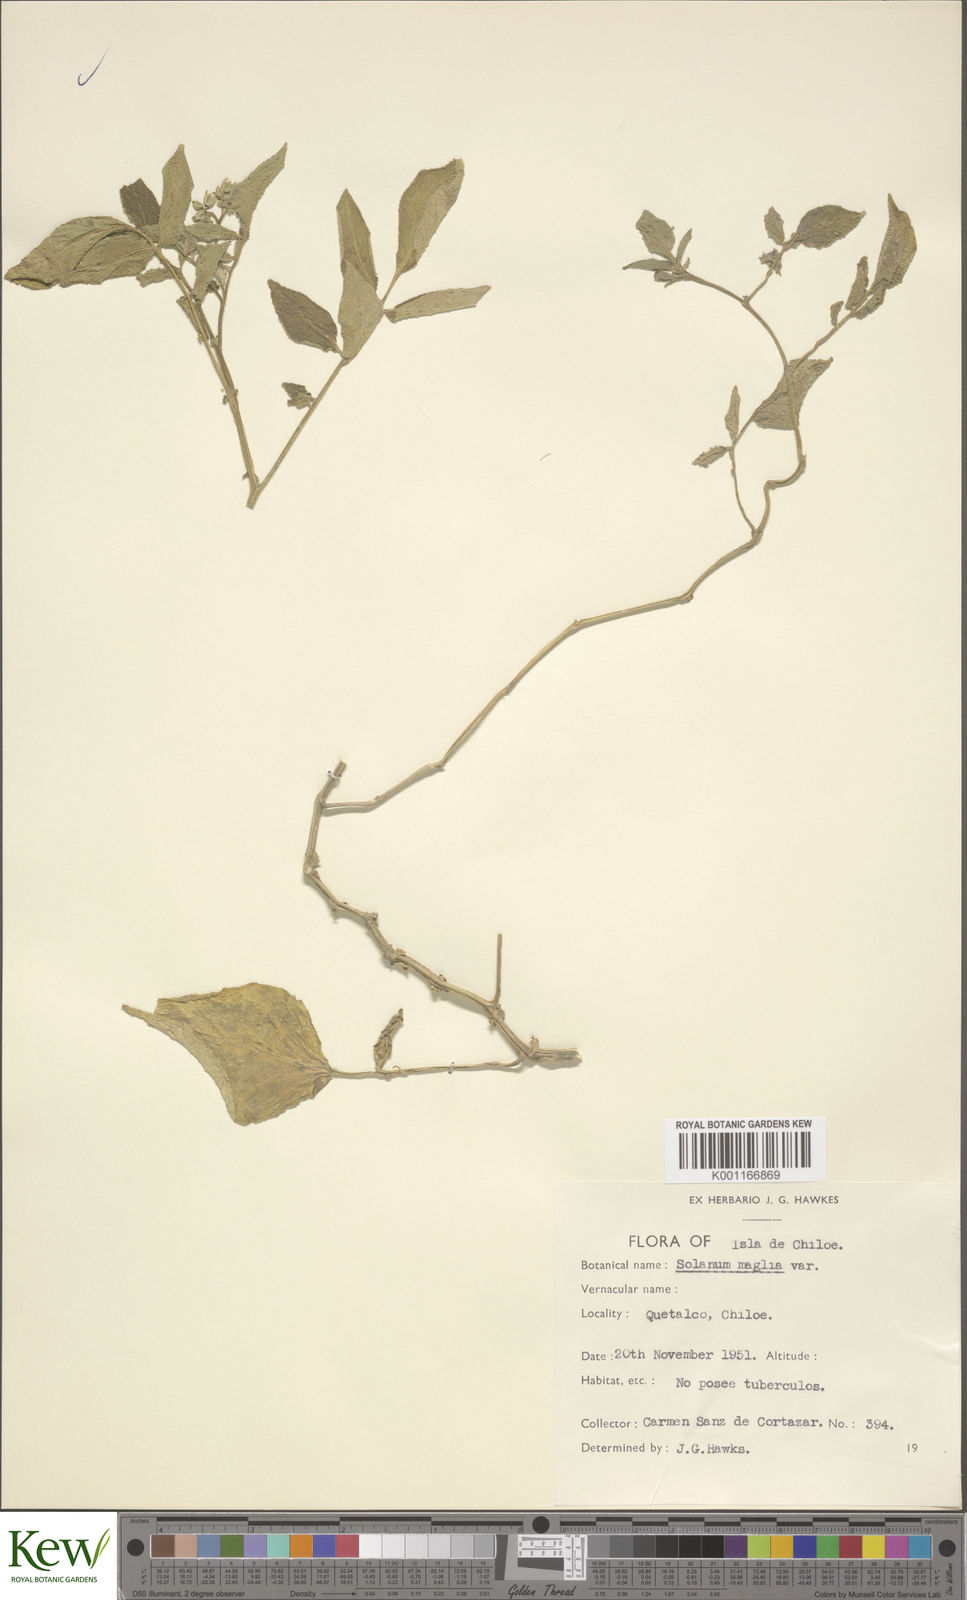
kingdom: Plantae
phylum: Tracheophyta
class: Magnoliopsida
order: Solanales
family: Solanaceae
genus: Solanum
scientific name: Solanum maglia
